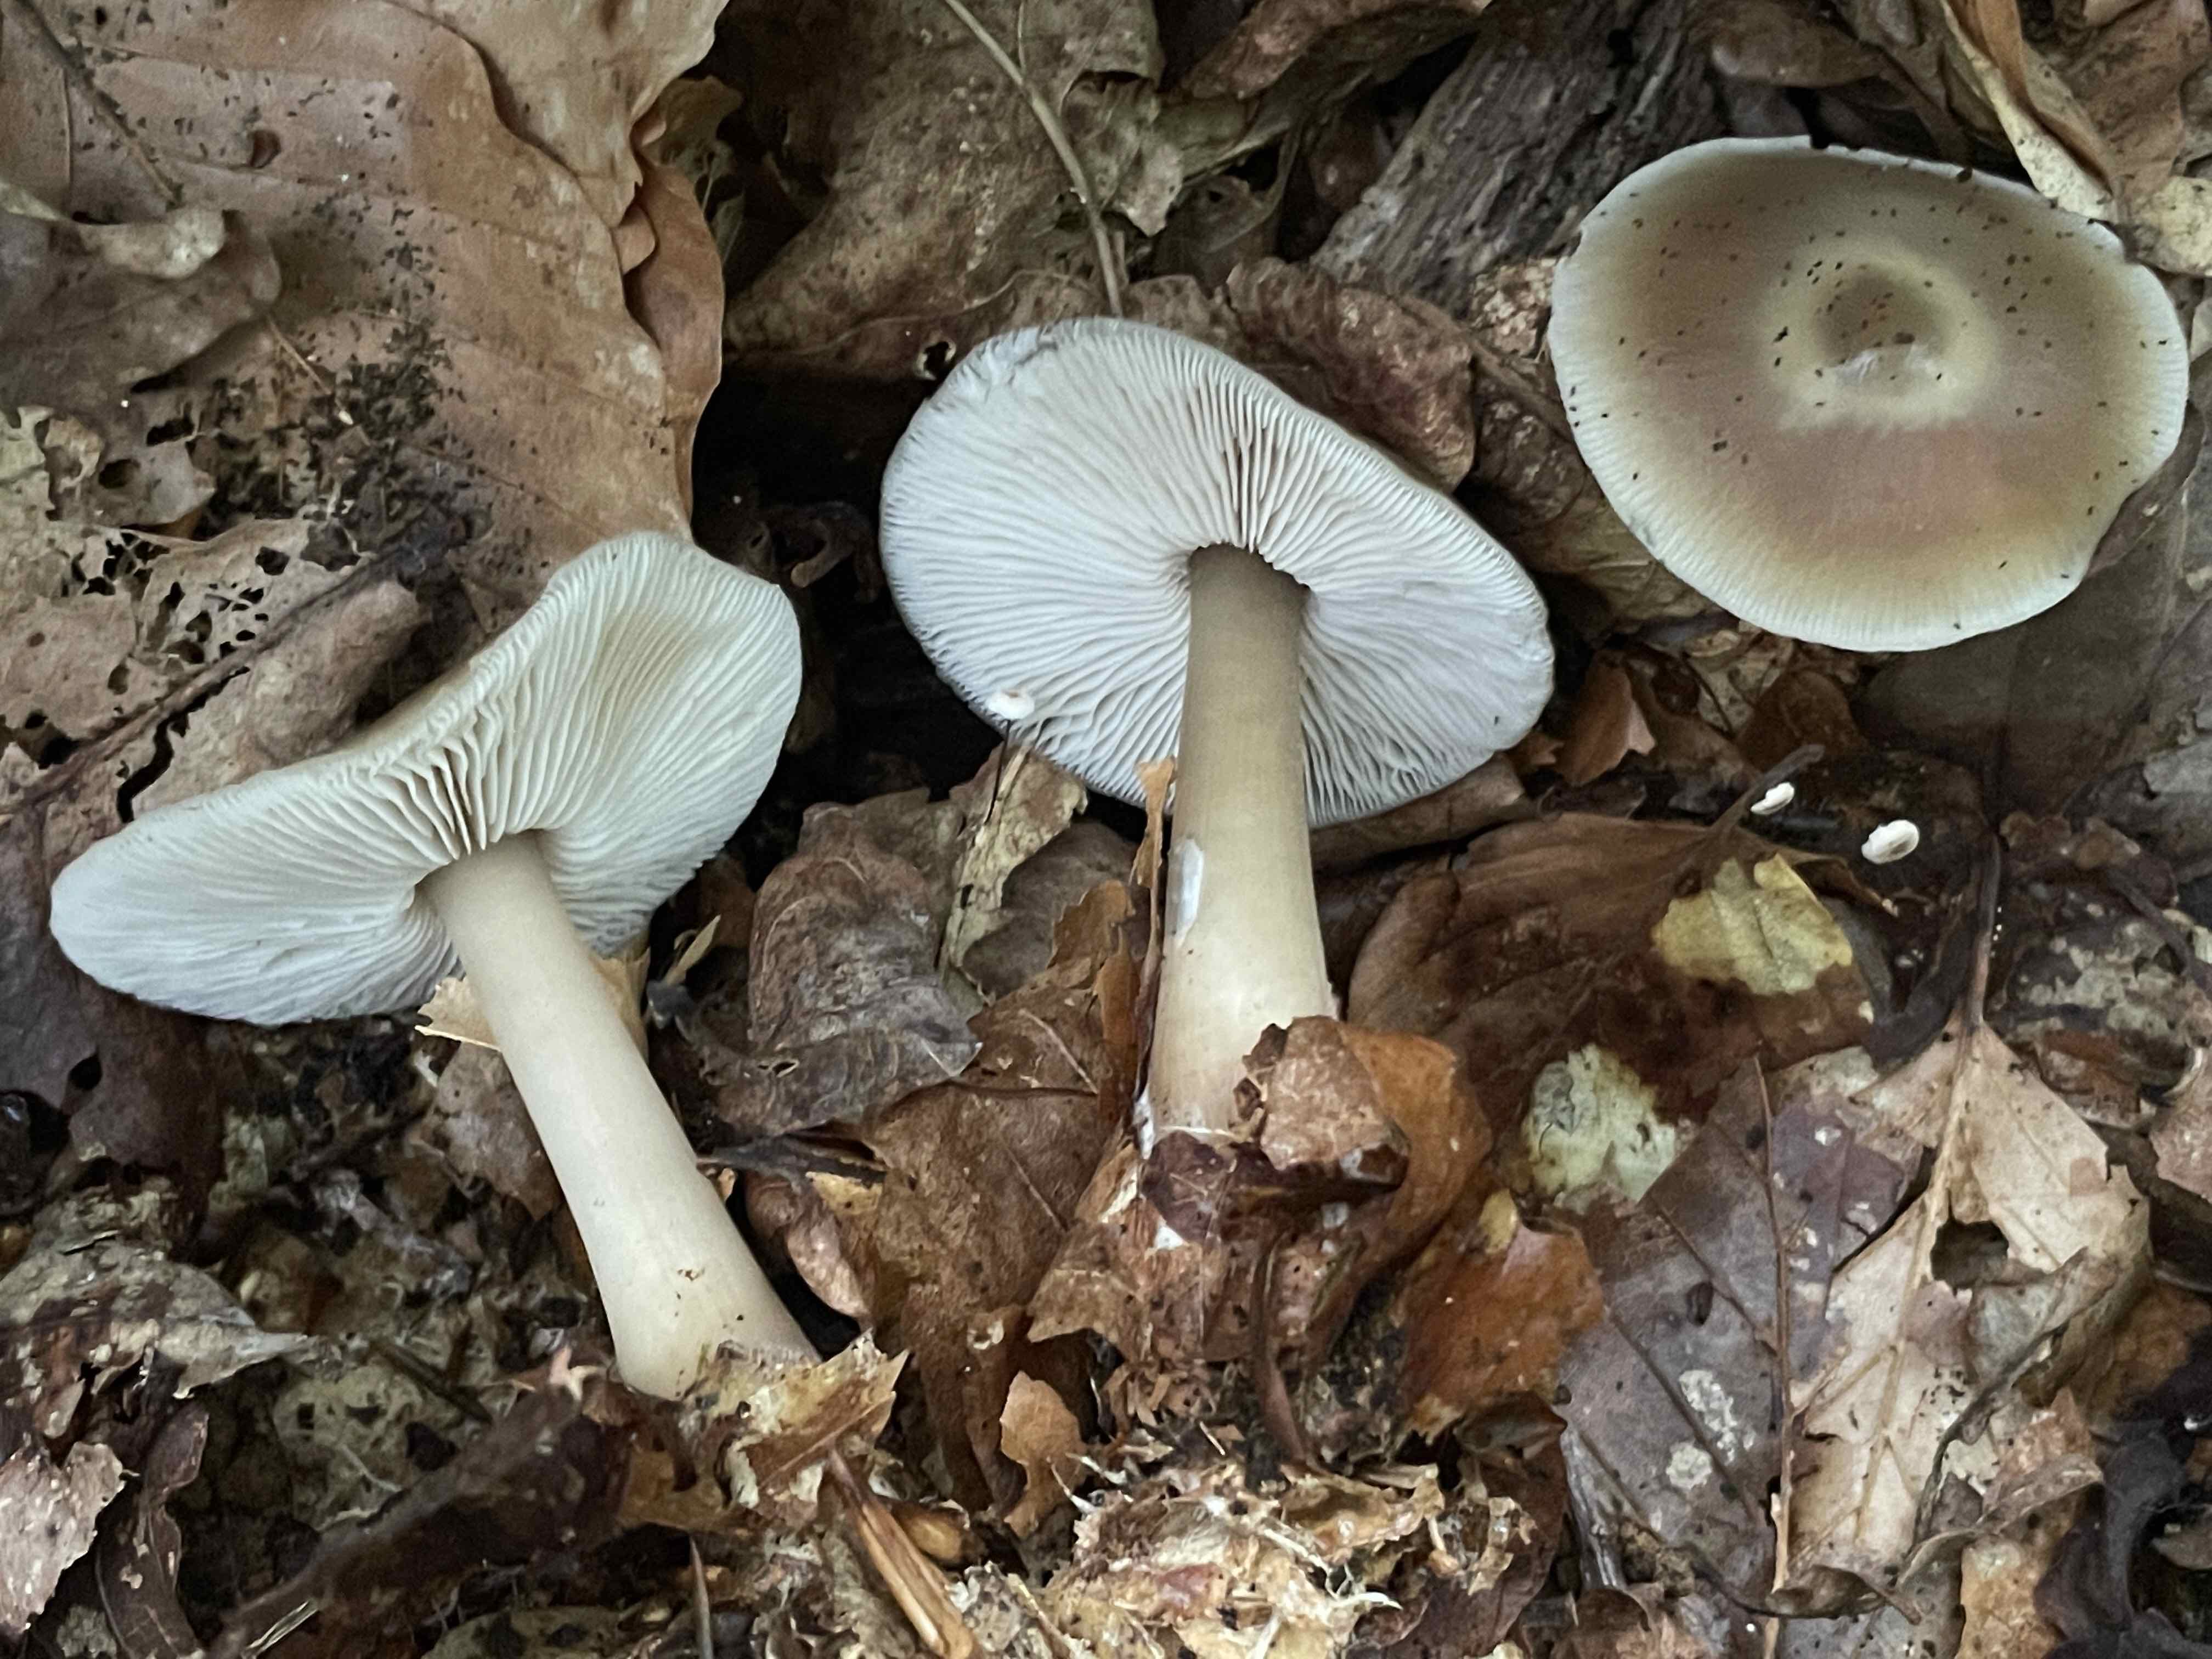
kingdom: Fungi
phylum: Basidiomycota
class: Agaricomycetes
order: Agaricales
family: Omphalotaceae
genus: Rhodocollybia
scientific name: Rhodocollybia asema
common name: horngrå fladhat
